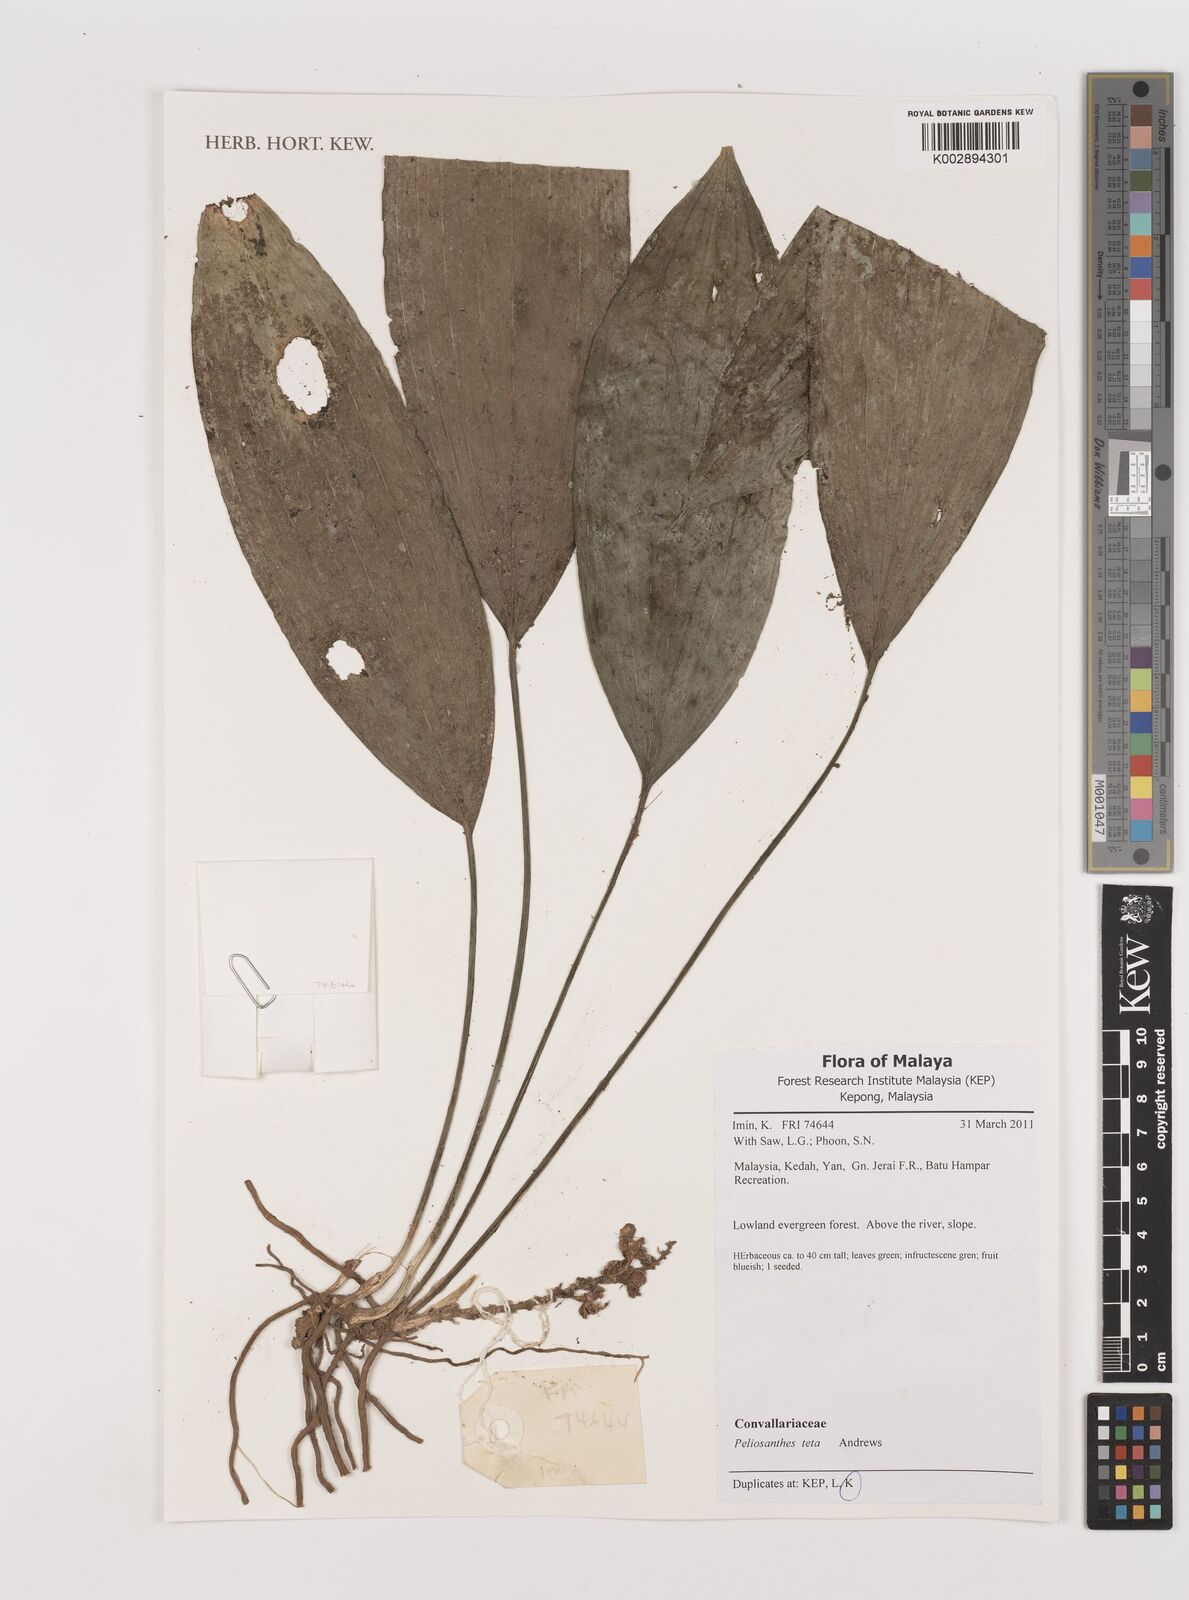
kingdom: Plantae
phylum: Tracheophyta
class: Liliopsida
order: Asparagales
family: Asparagaceae
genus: Peliosanthes
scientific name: Peliosanthes teta
